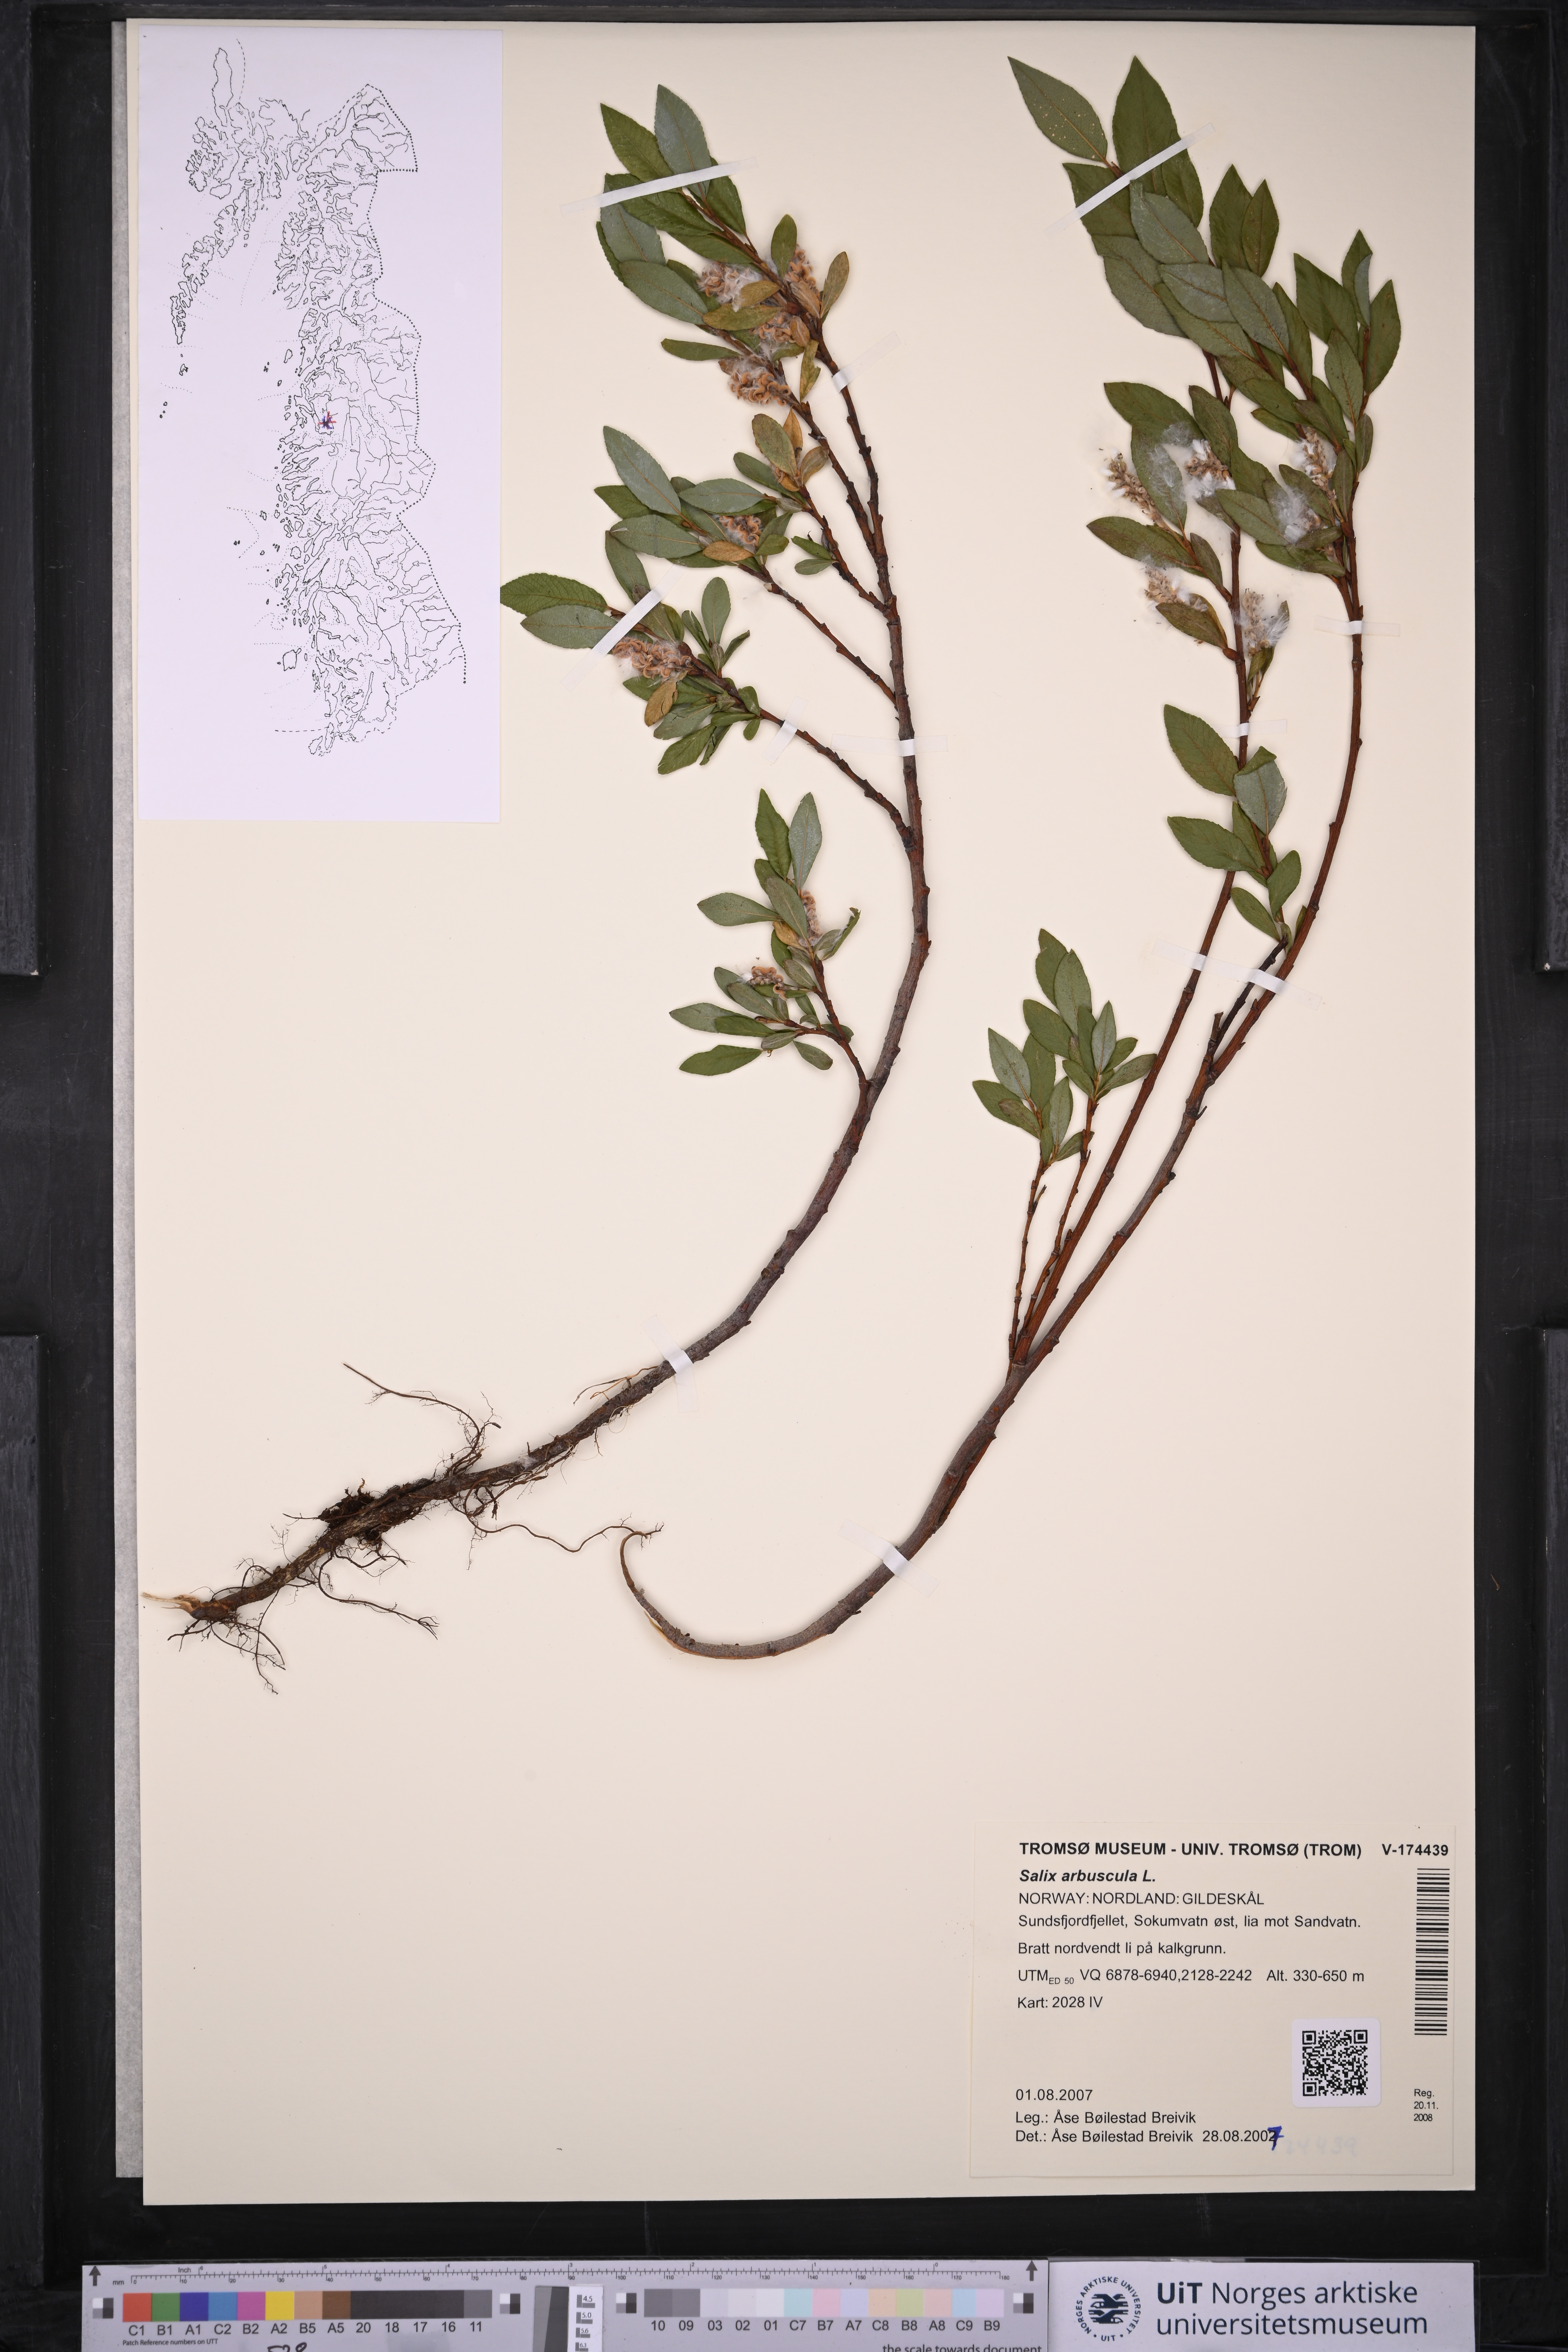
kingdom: Plantae
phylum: Tracheophyta
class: Magnoliopsida
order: Malpighiales
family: Salicaceae
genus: Salix
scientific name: Salix arbuscula
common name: Mountain willow
